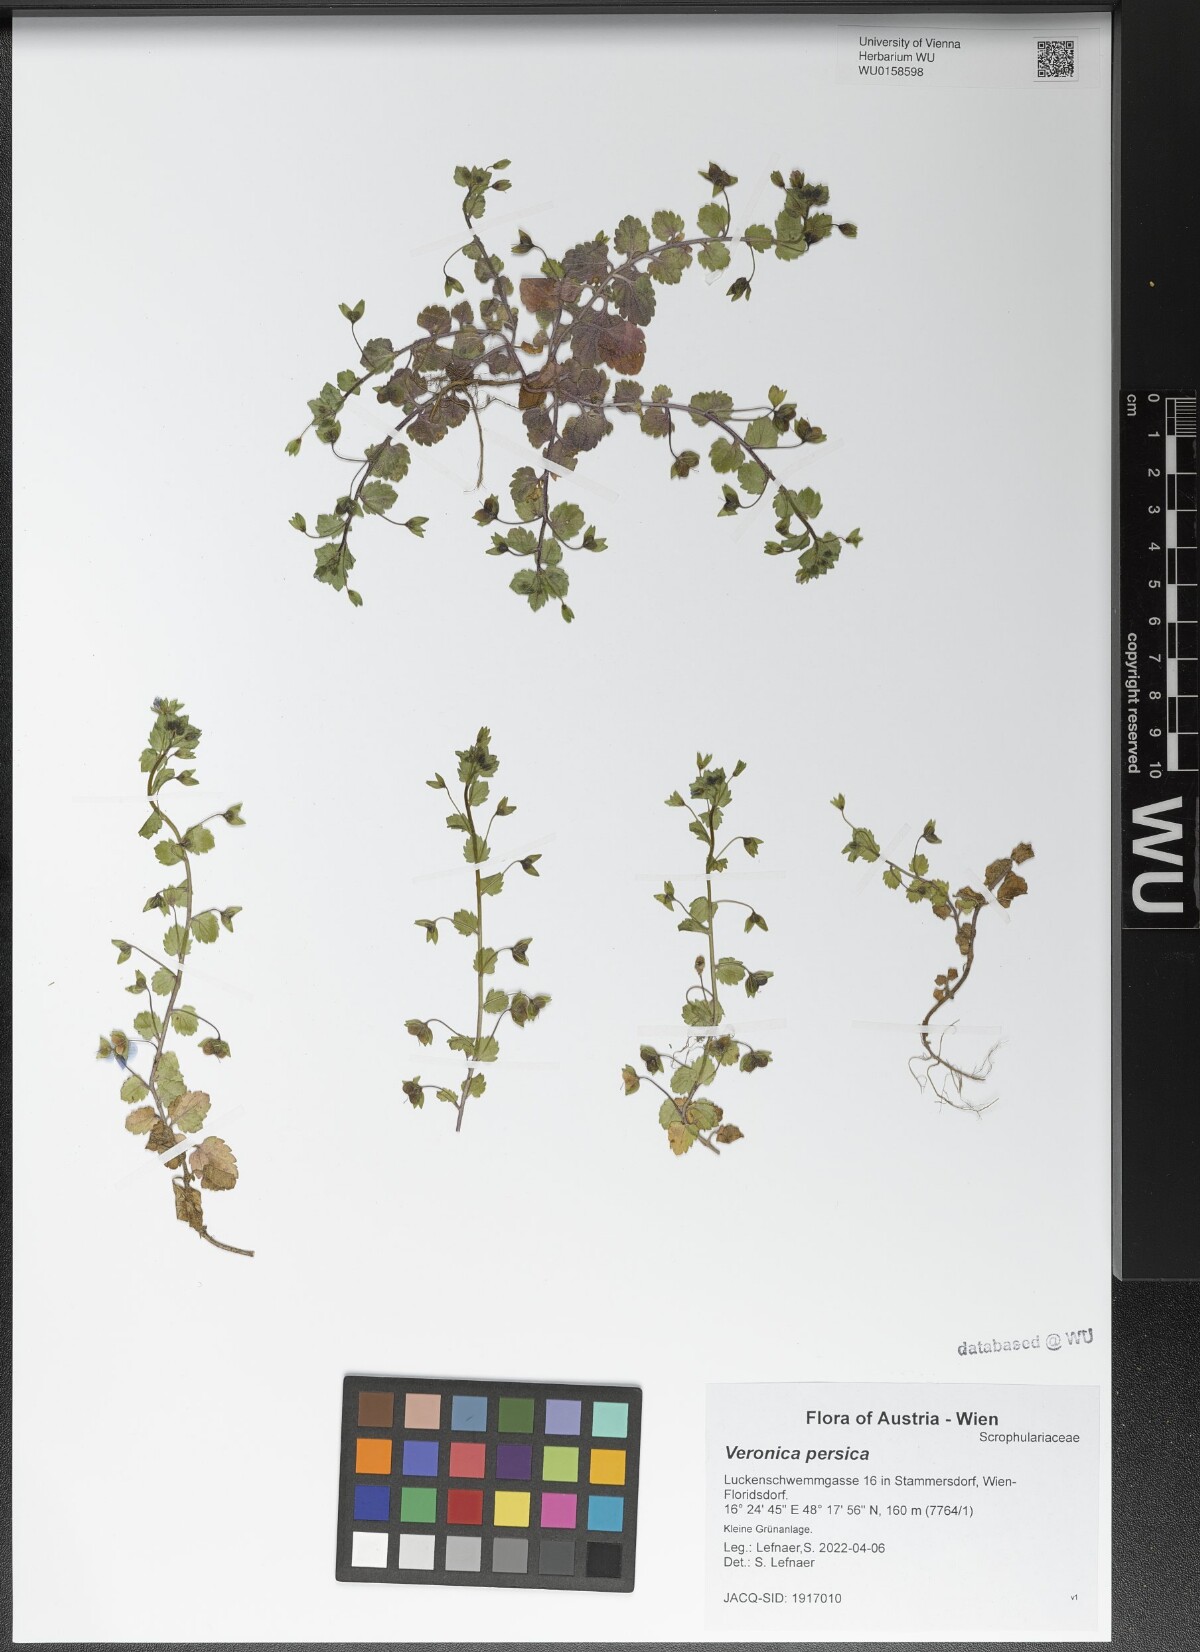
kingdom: Plantae
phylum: Tracheophyta
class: Magnoliopsida
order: Lamiales
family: Plantaginaceae
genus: Veronica
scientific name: Veronica persica
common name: Common field-speedwell
